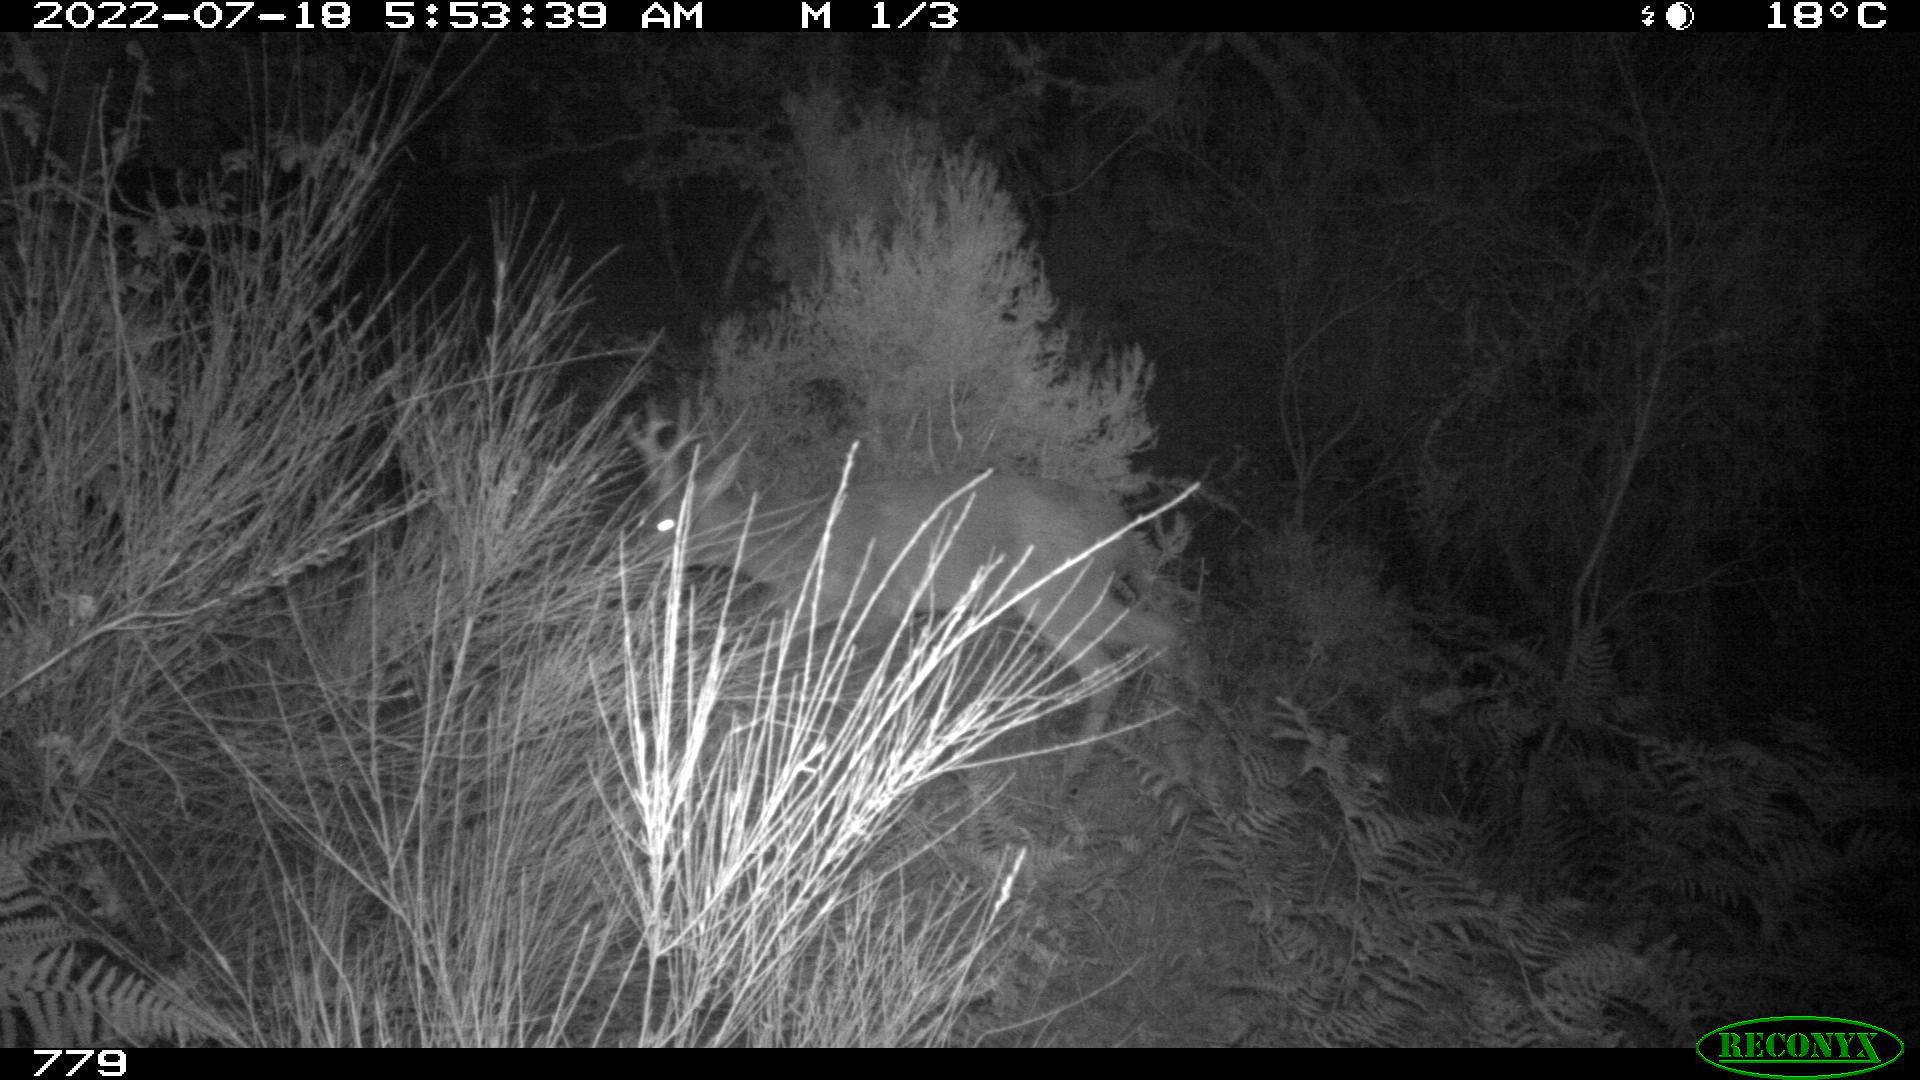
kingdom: Animalia
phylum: Chordata
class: Mammalia
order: Artiodactyla
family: Cervidae
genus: Capreolus
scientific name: Capreolus capreolus
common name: Western roe deer
